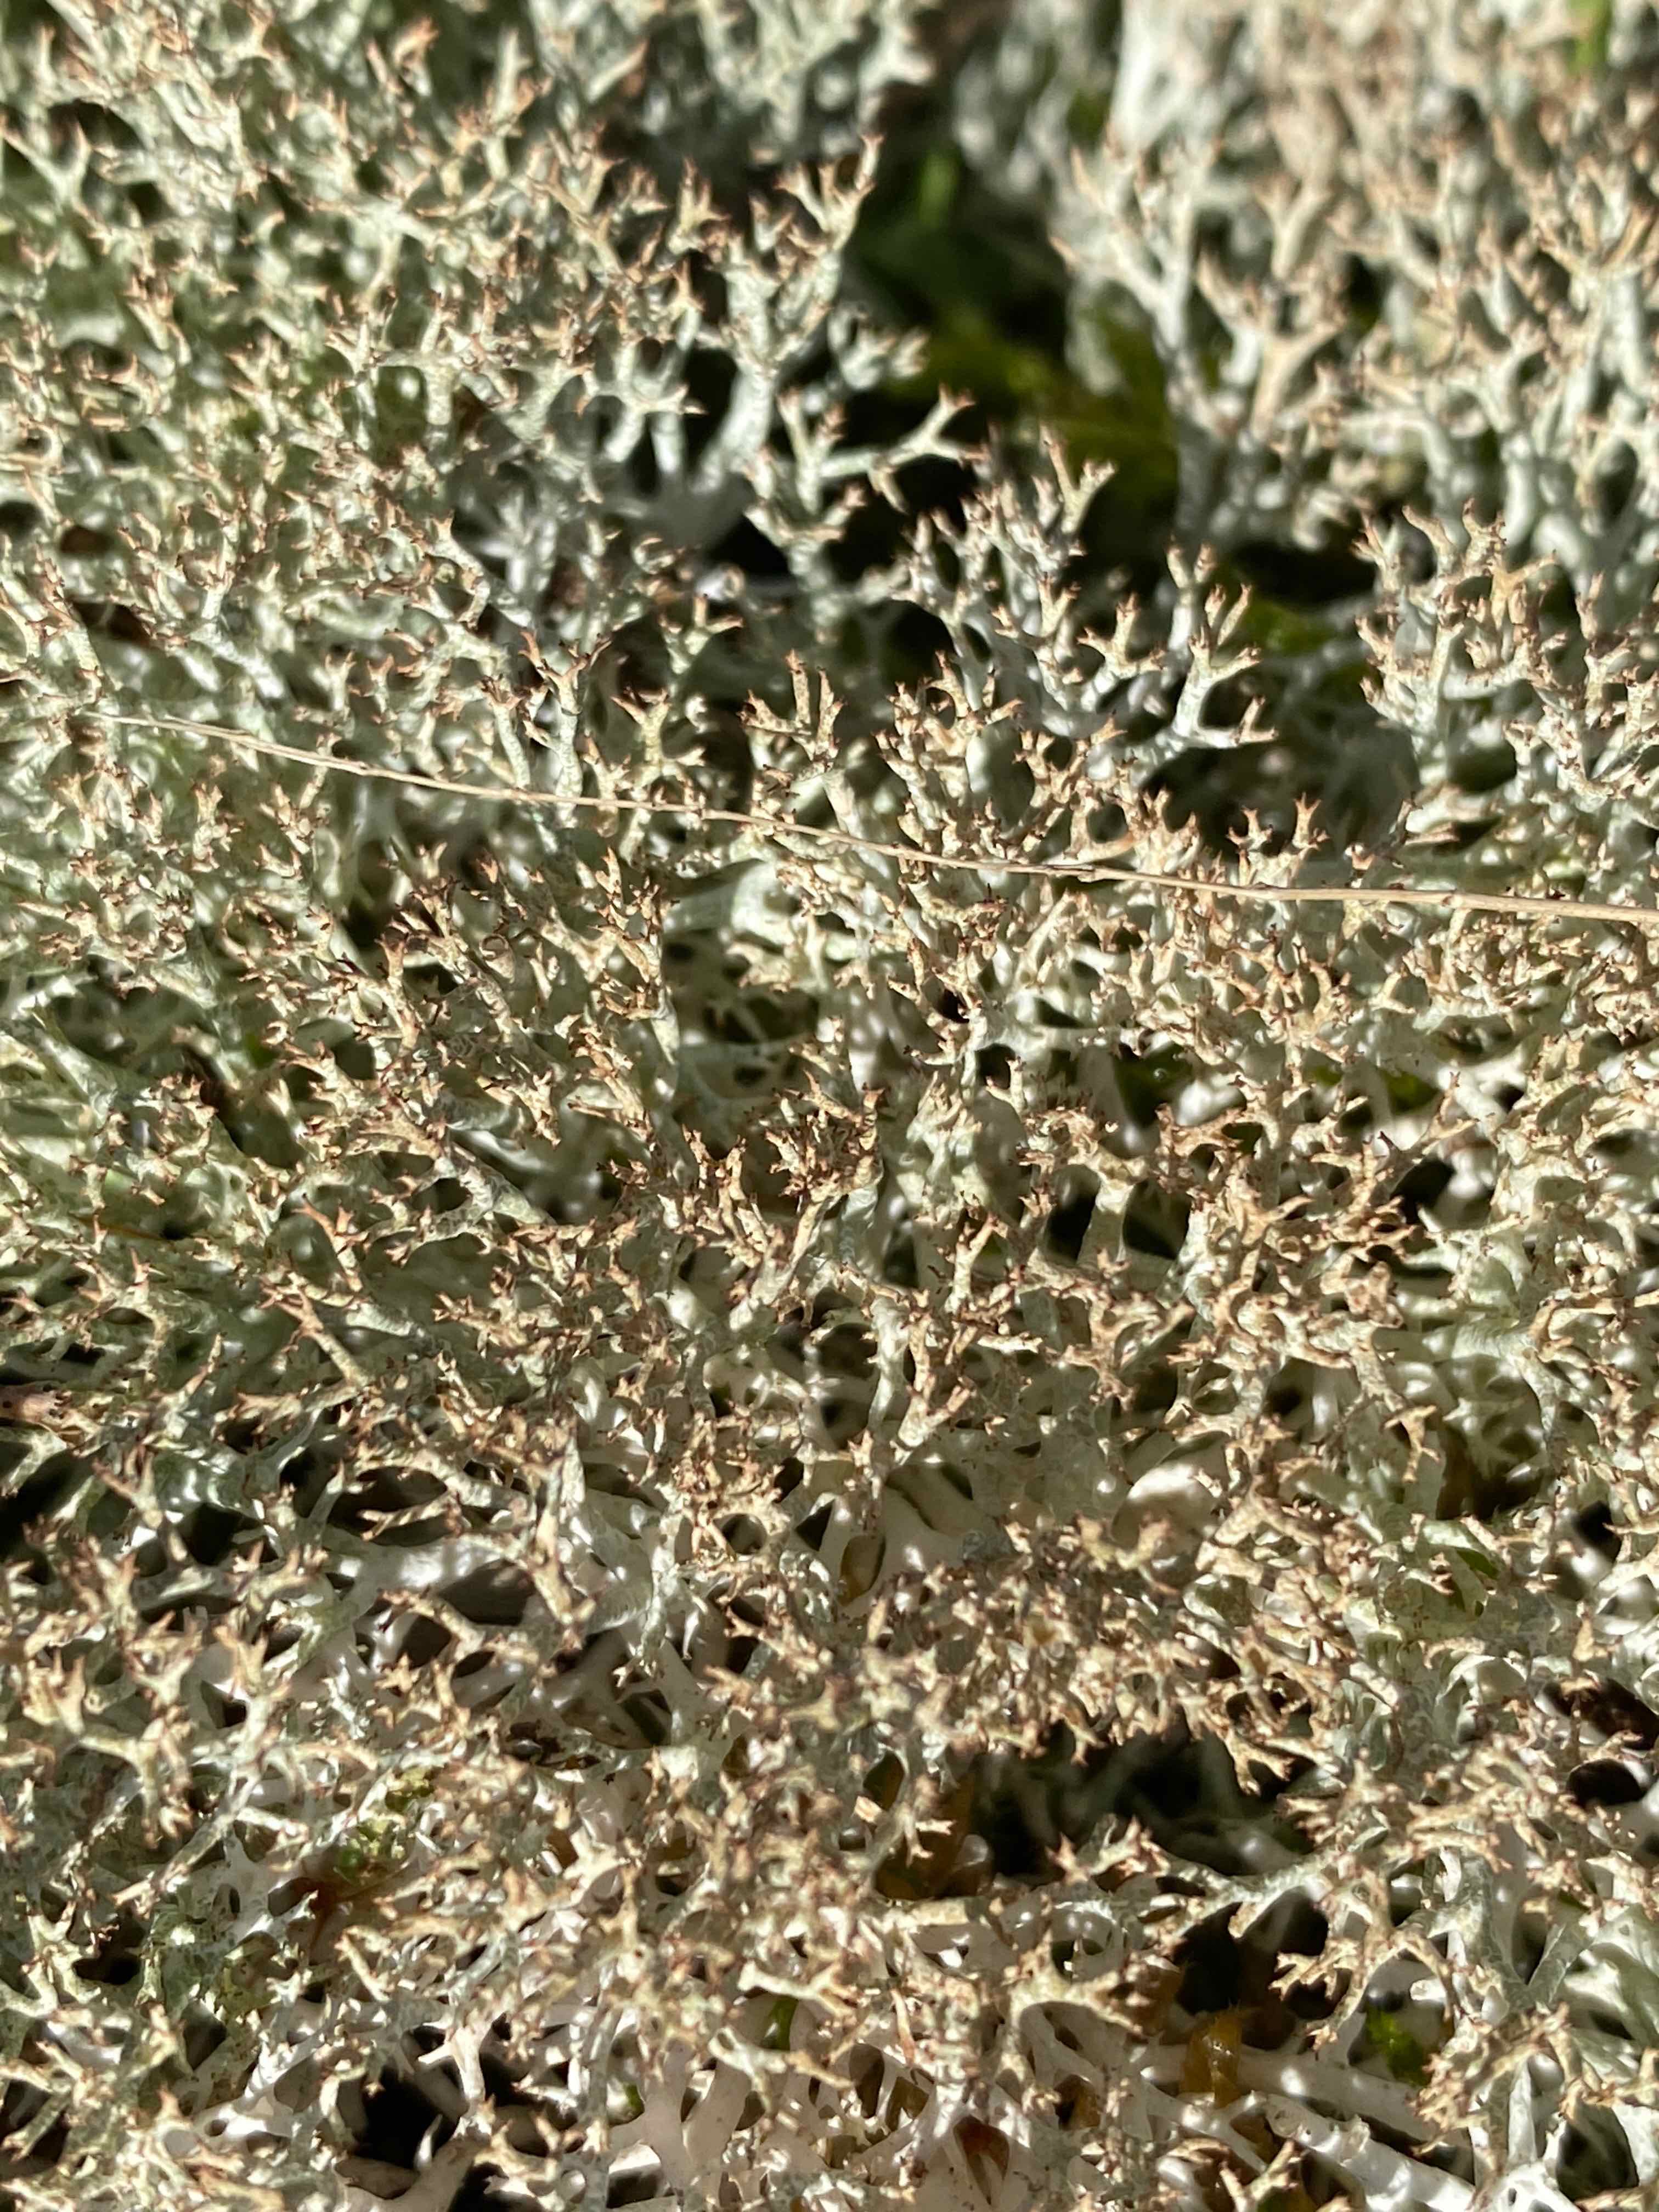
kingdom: Fungi
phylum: Ascomycota
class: Lecanoromycetes
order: Lecanorales
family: Cladoniaceae
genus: Cladonia
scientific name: Cladonia rangiformis
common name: spættet bægerlav
